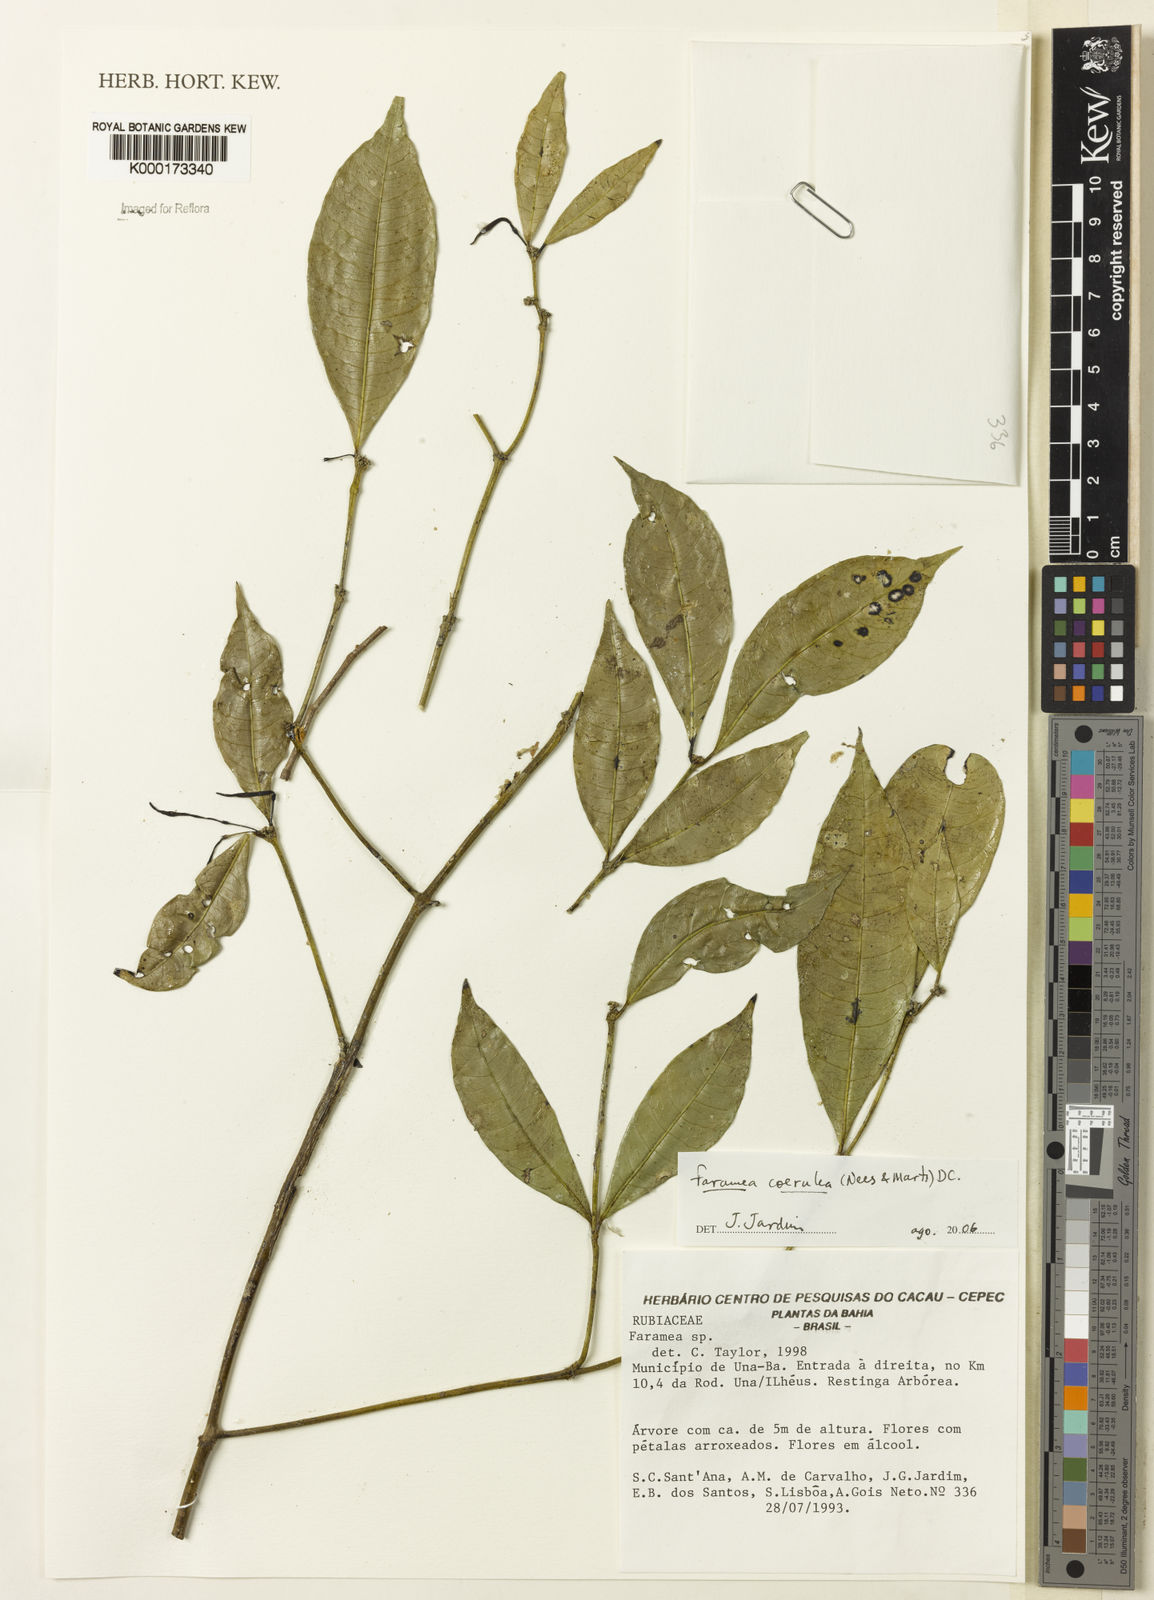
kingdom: Plantae
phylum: Tracheophyta
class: Magnoliopsida
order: Gentianales
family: Rubiaceae
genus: Faramea
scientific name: Faramea coerulea
